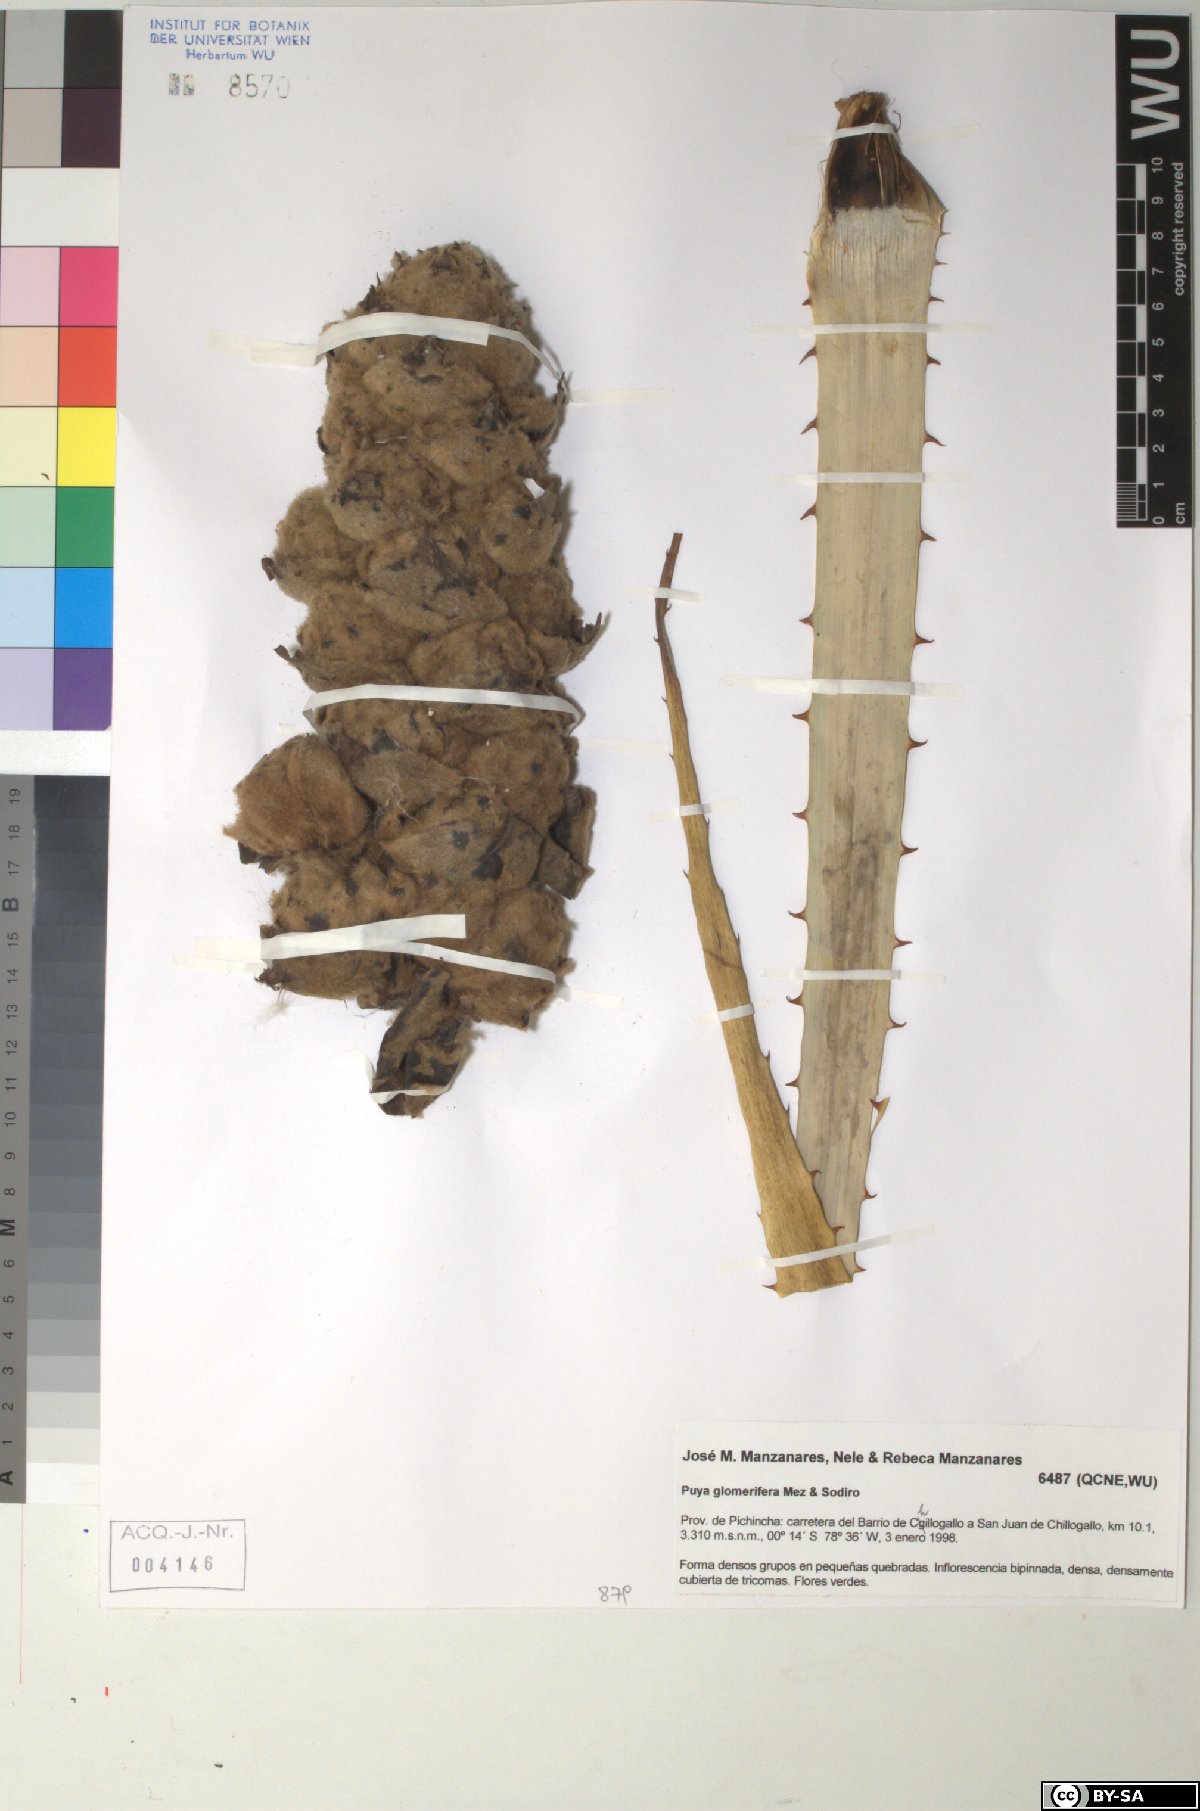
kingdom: Plantae
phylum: Tracheophyta
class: Liliopsida
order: Poales
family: Bromeliaceae
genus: Puya
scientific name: Puya glomerifera
